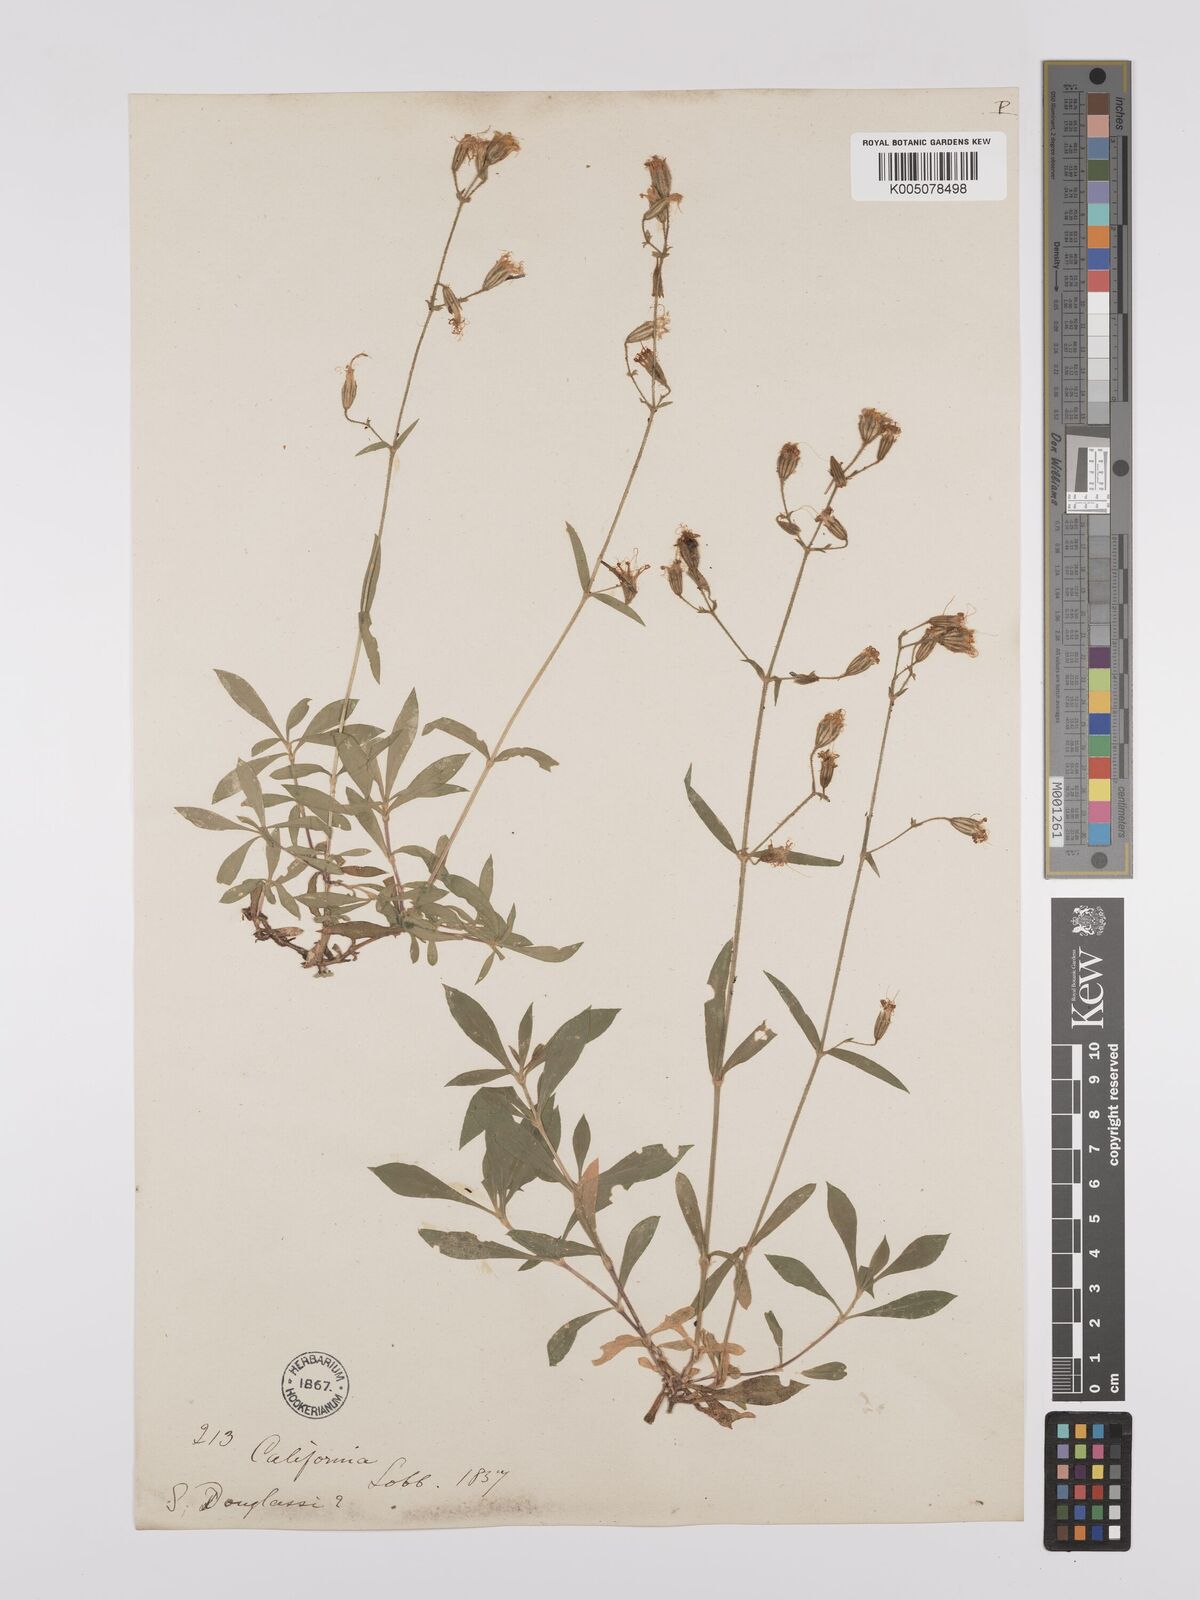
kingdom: Plantae
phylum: Tracheophyta
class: Magnoliopsida
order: Caryophyllales
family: Caryophyllaceae
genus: Silene
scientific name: Silene lemmonii
